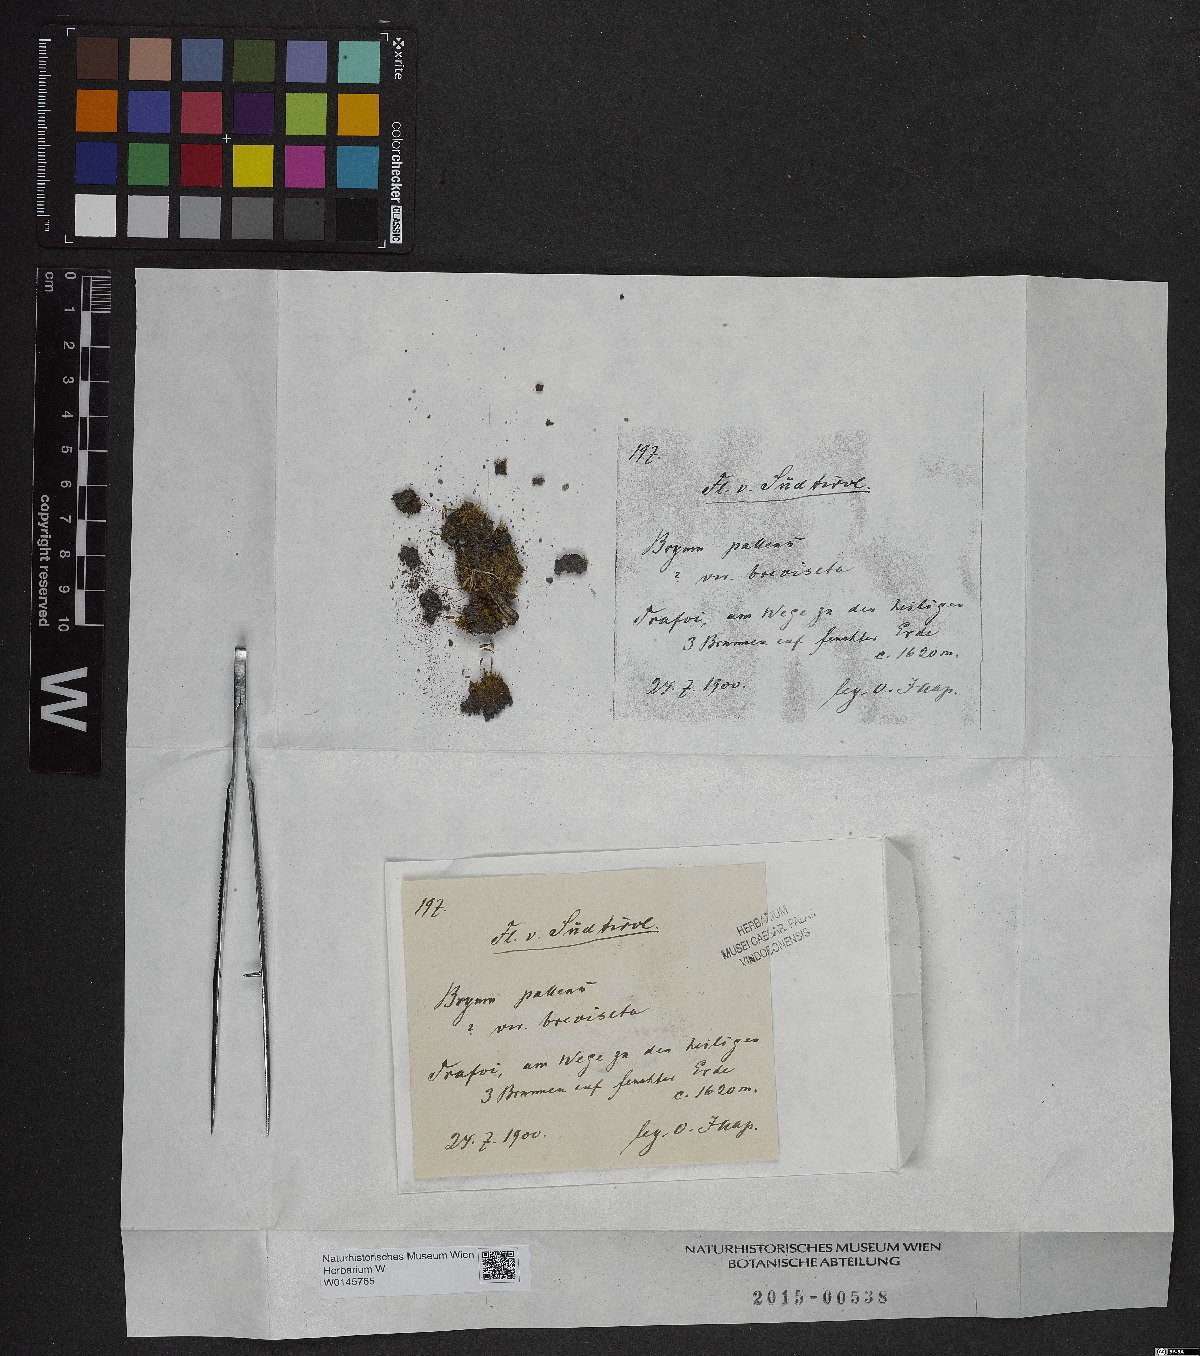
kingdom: Plantae
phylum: Bryophyta
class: Bryopsida
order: Bryales
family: Bryaceae
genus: Ptychostomum
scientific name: Ptychostomum pallens
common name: Pale thread-moss
